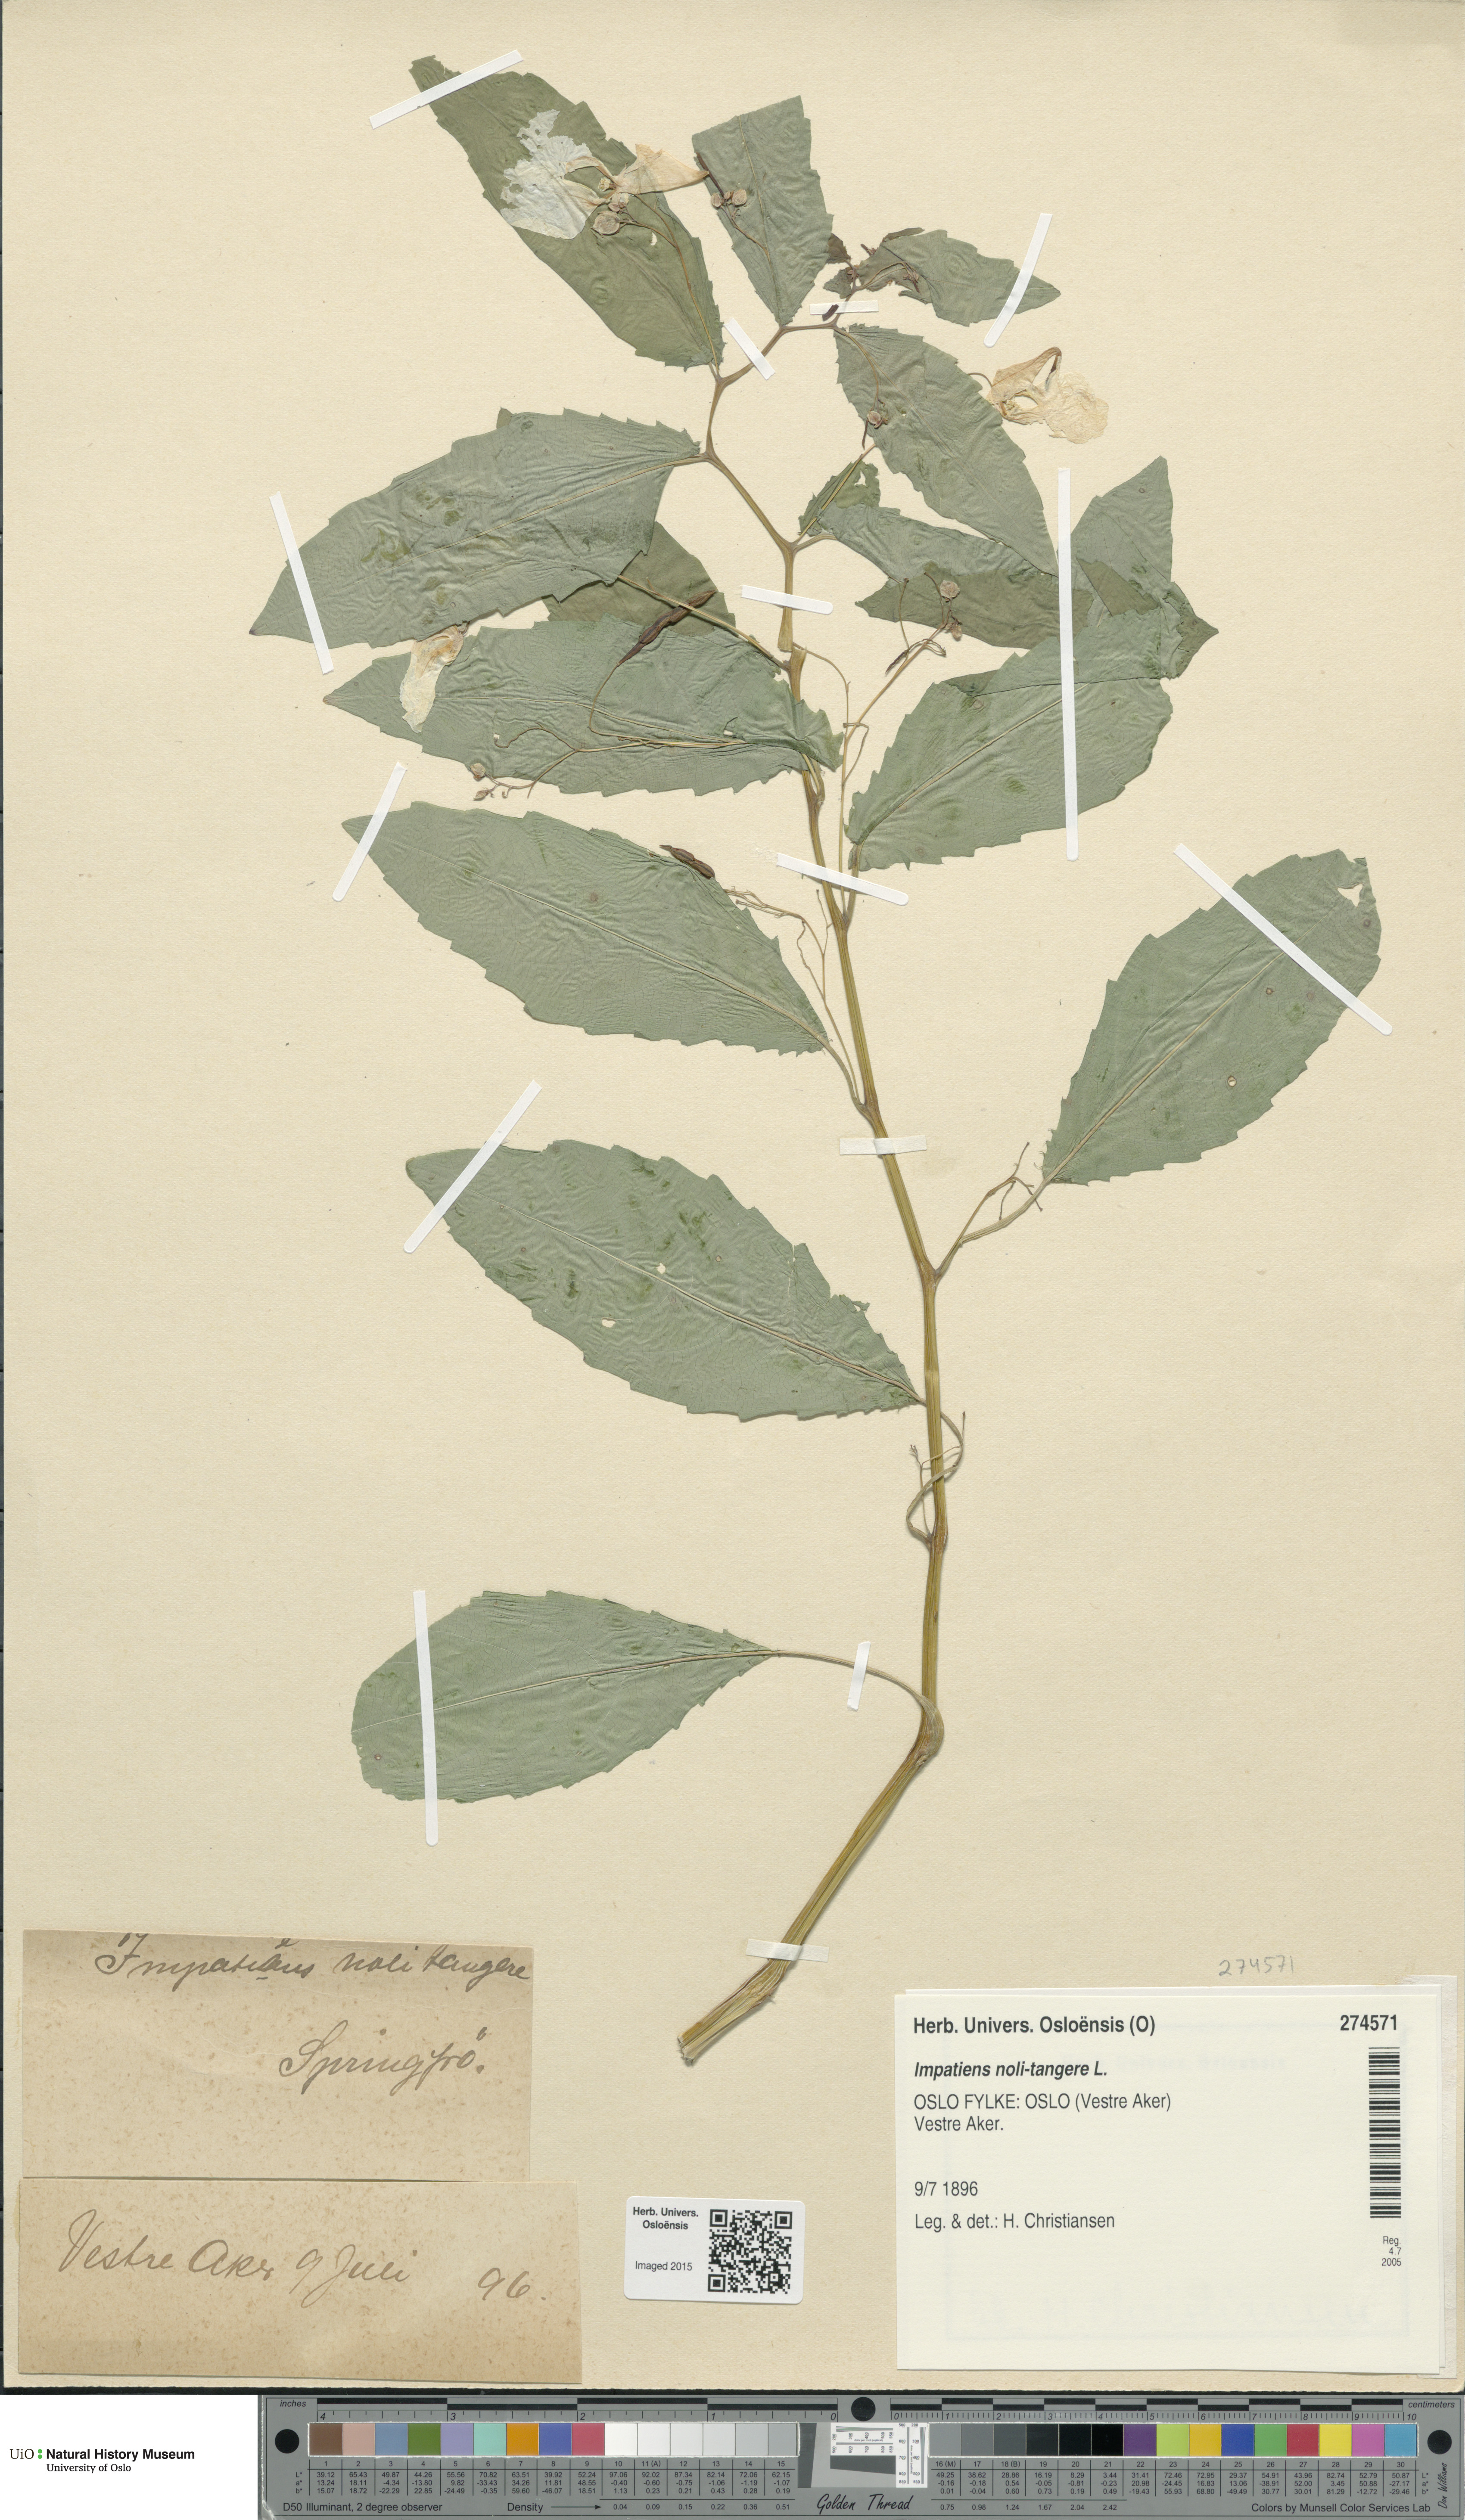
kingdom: Plantae
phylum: Tracheophyta
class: Magnoliopsida
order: Ericales
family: Balsaminaceae
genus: Impatiens
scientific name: Impatiens noli-tangere
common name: Touch-me-not balsam
